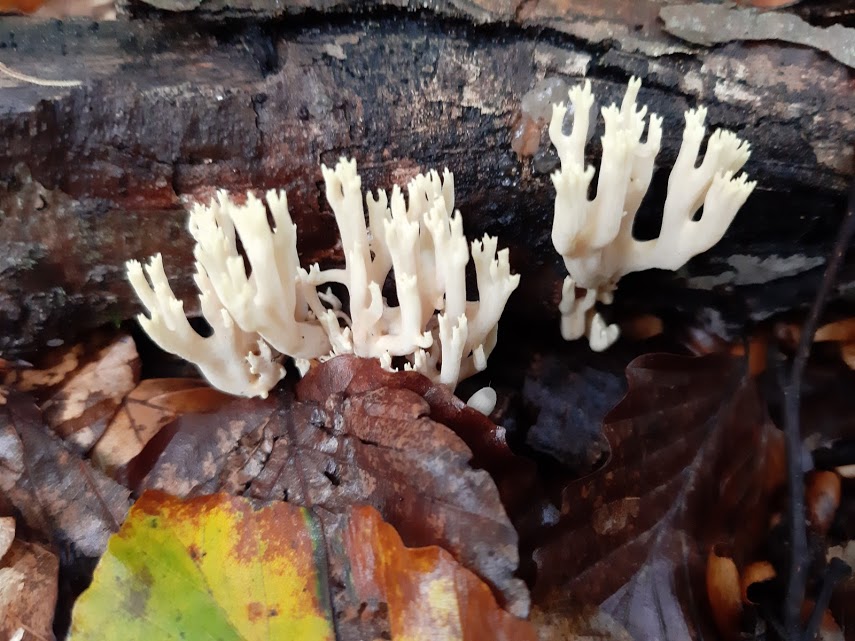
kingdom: Fungi
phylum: Basidiomycota
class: Agaricomycetes
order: Gomphales
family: Gomphaceae
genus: Ramaria
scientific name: Ramaria stricta
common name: rank koralsvamp
